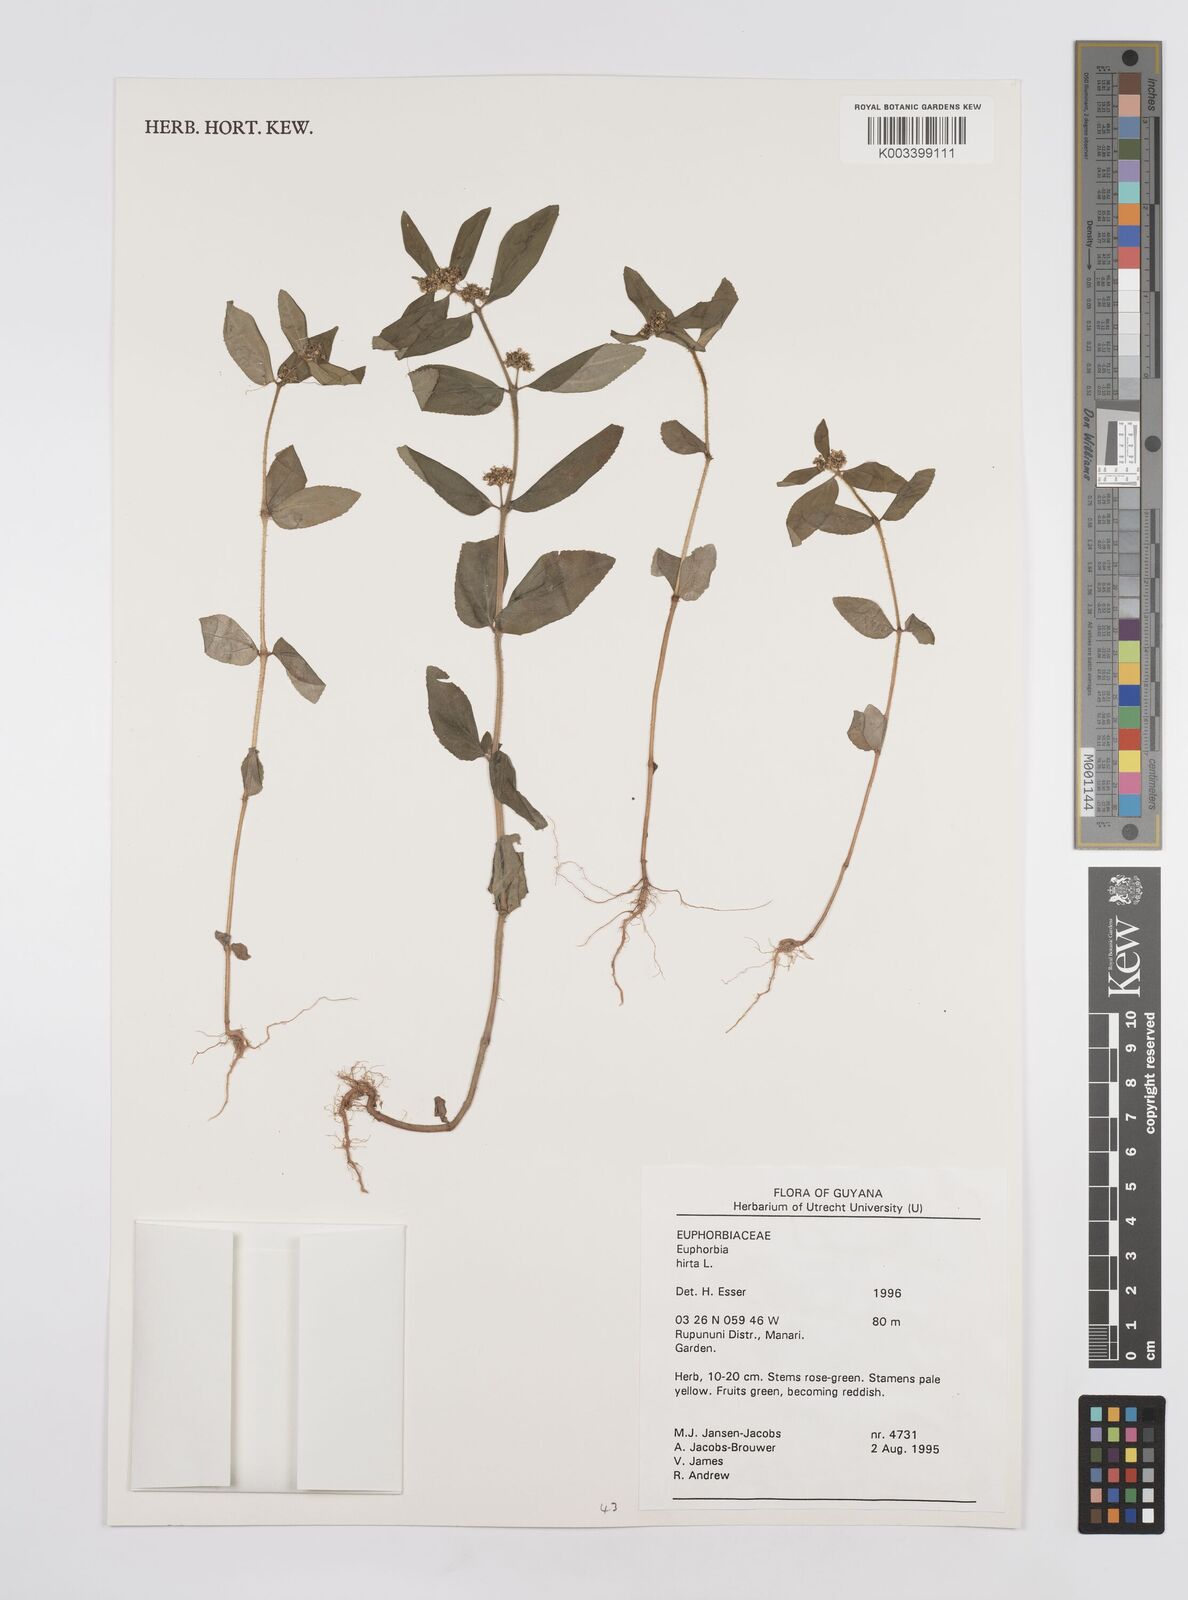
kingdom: Plantae
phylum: Tracheophyta
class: Magnoliopsida
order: Malpighiales
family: Euphorbiaceae
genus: Euphorbia
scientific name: Euphorbia hirta
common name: Pillpod sandmat
